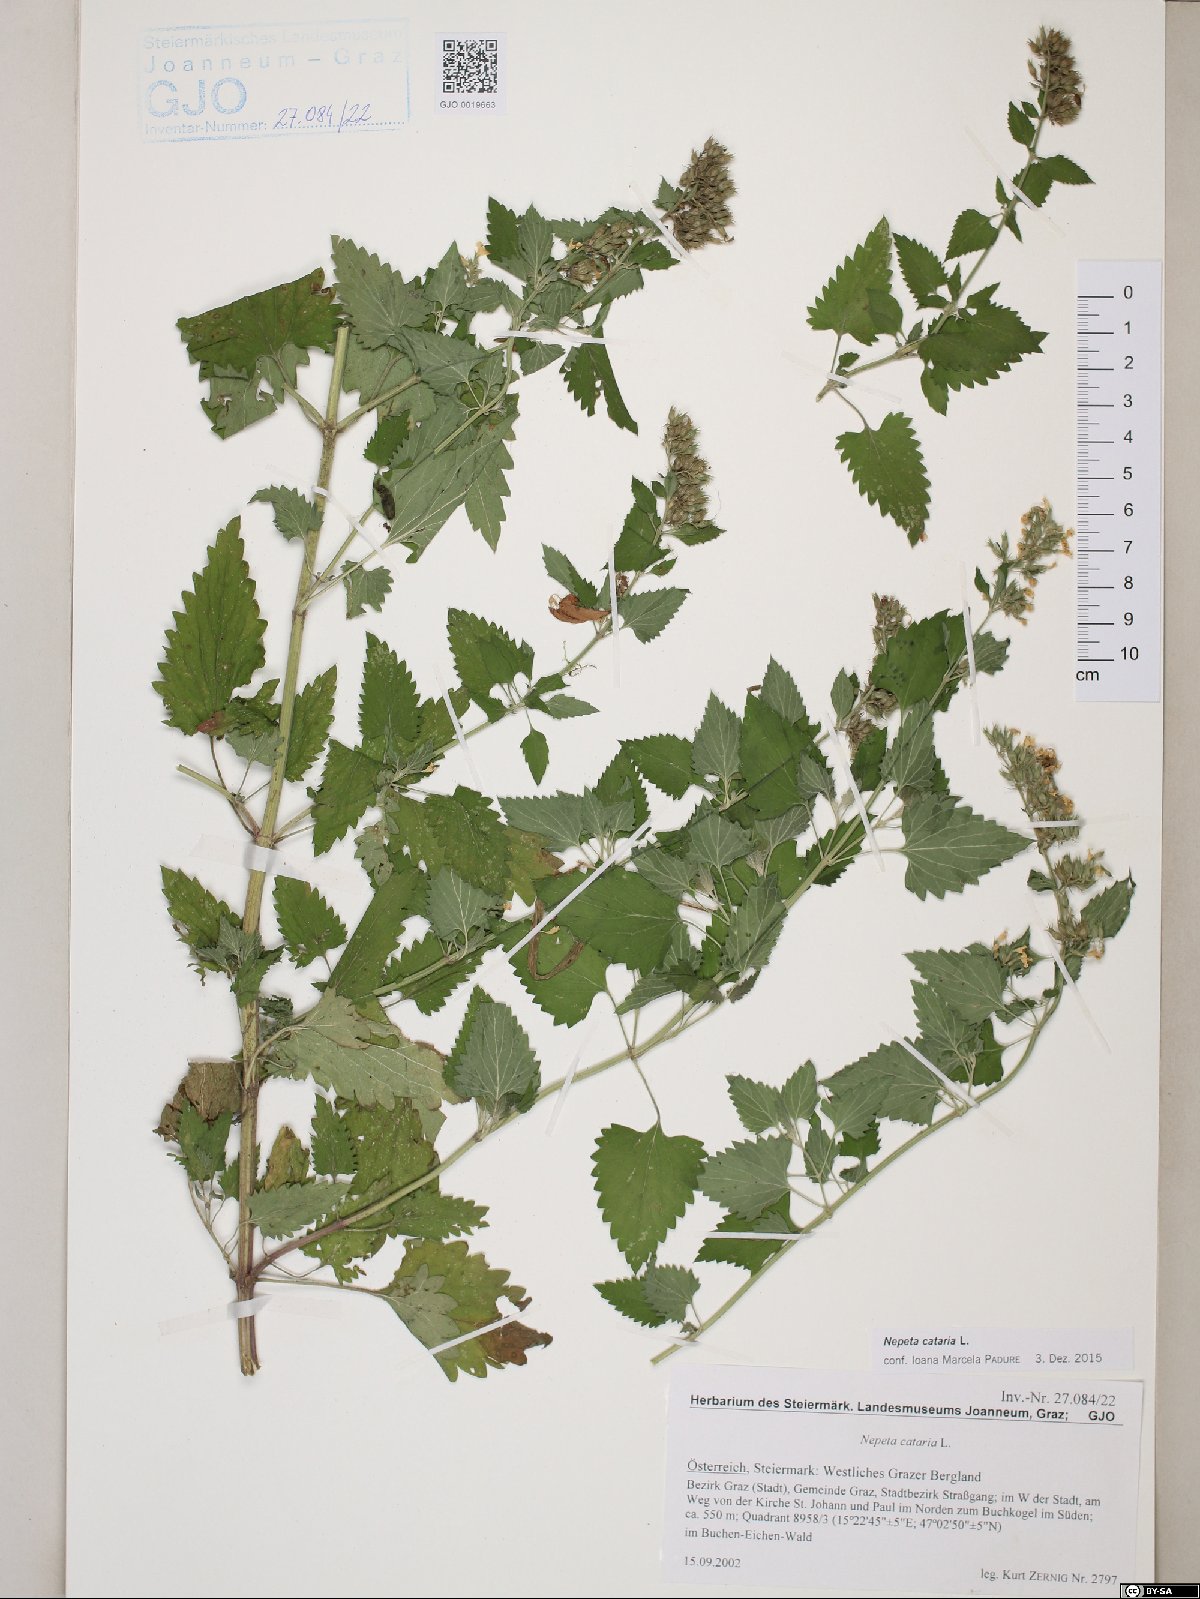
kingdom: Plantae
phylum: Tracheophyta
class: Magnoliopsida
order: Lamiales
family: Lamiaceae
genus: Nepeta
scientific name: Nepeta cataria
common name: Catnip
